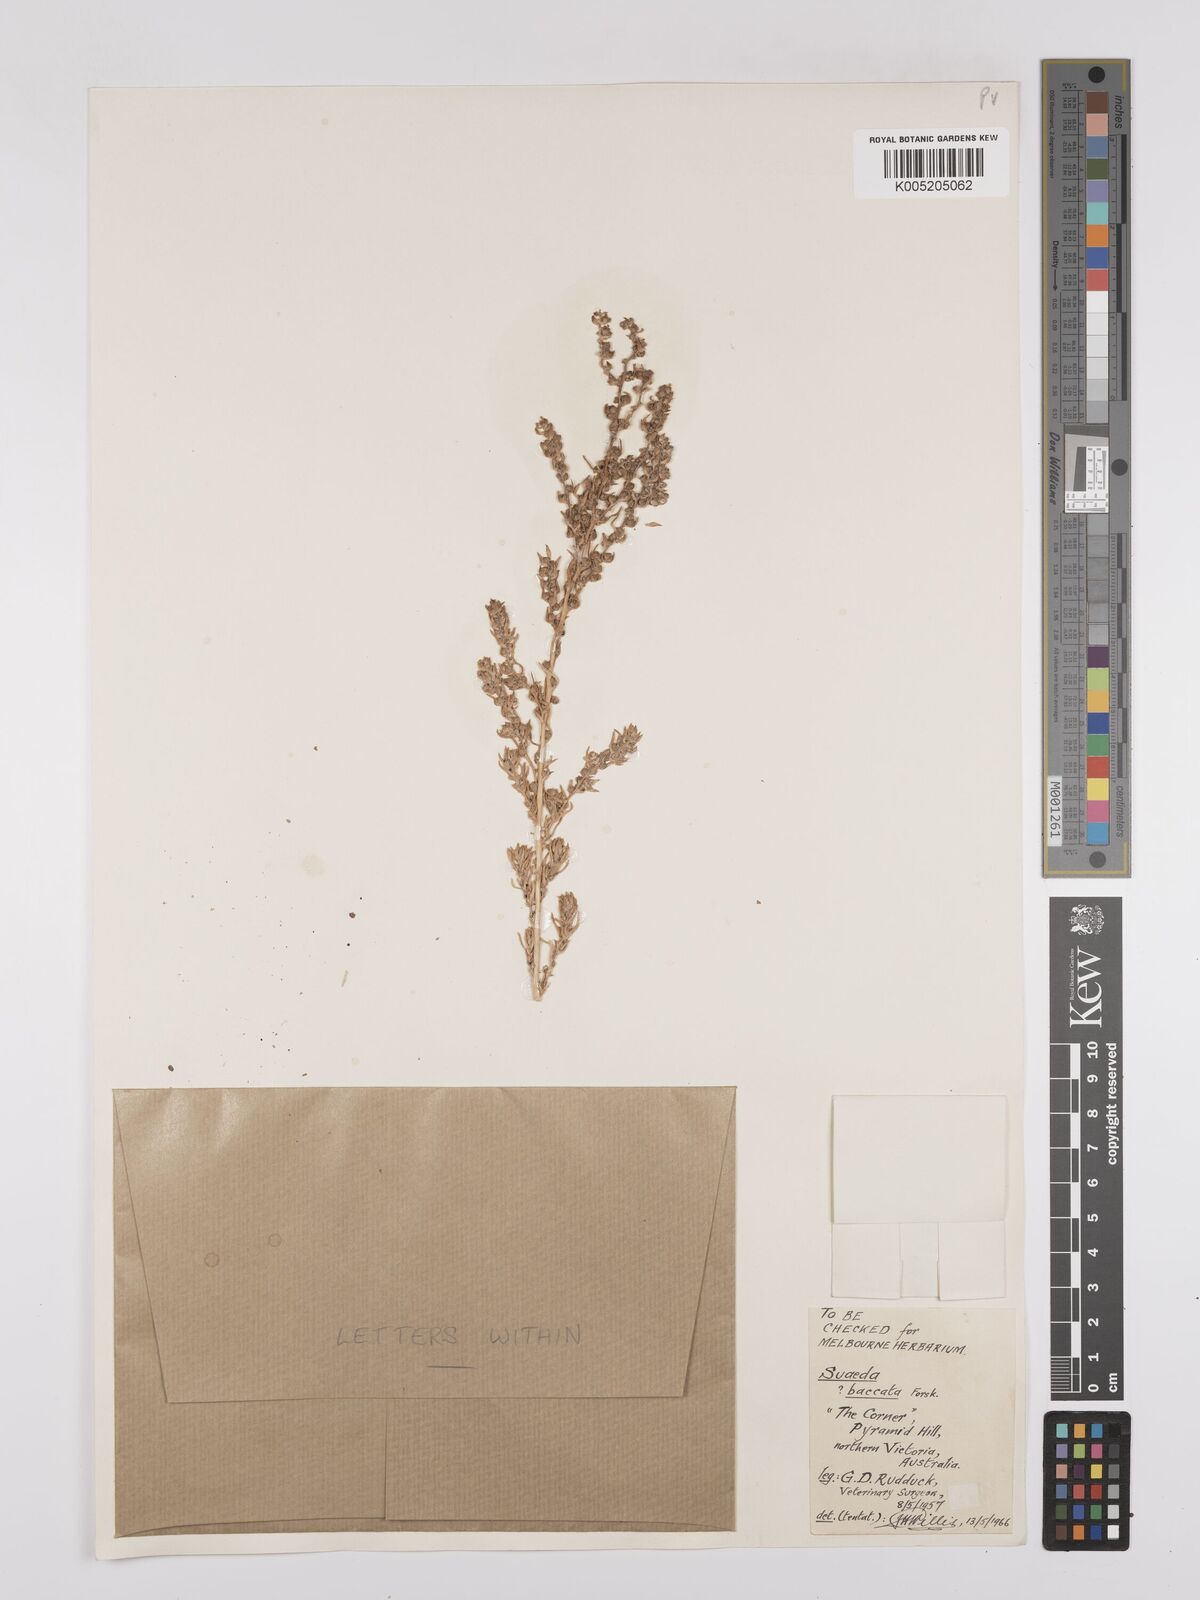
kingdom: Plantae
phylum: Tracheophyta
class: Magnoliopsida
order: Caryophyllales
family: Amaranthaceae
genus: Suaeda
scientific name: Suaeda
